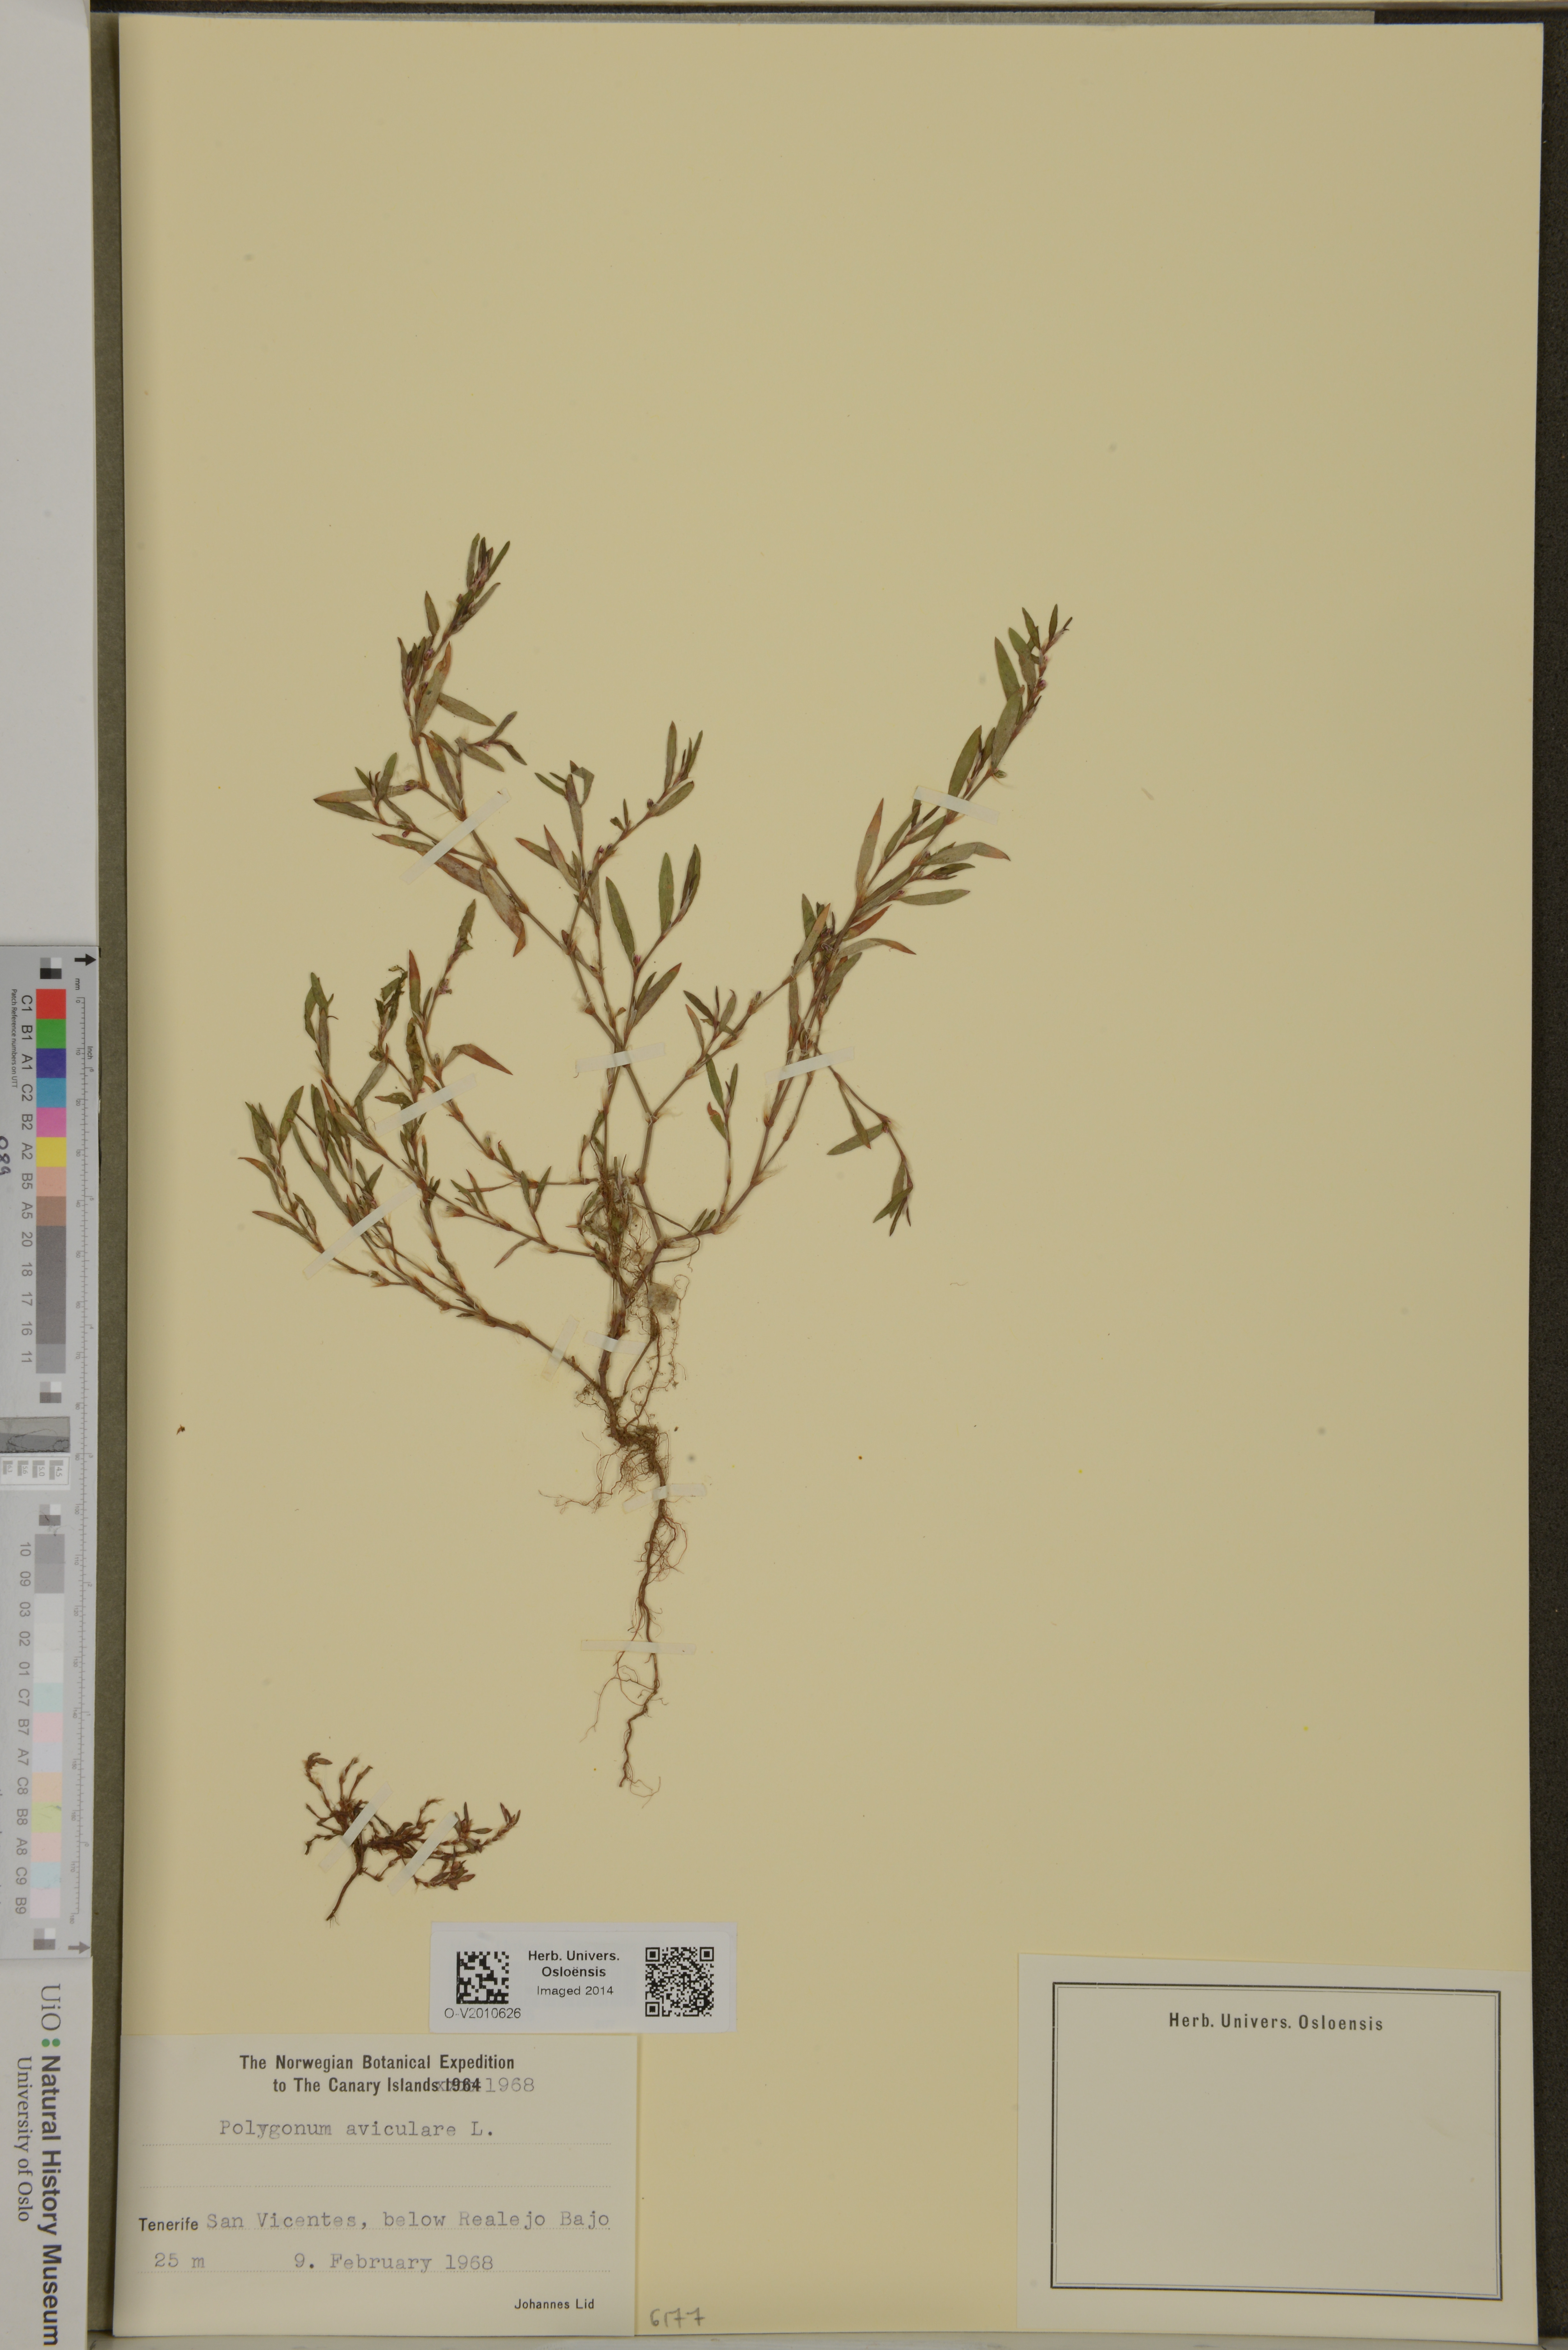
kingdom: Plantae
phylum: Tracheophyta
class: Magnoliopsida
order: Caryophyllales
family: Polygonaceae
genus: Polygonum
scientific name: Polygonum aviculare
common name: Prostrate knotweed
